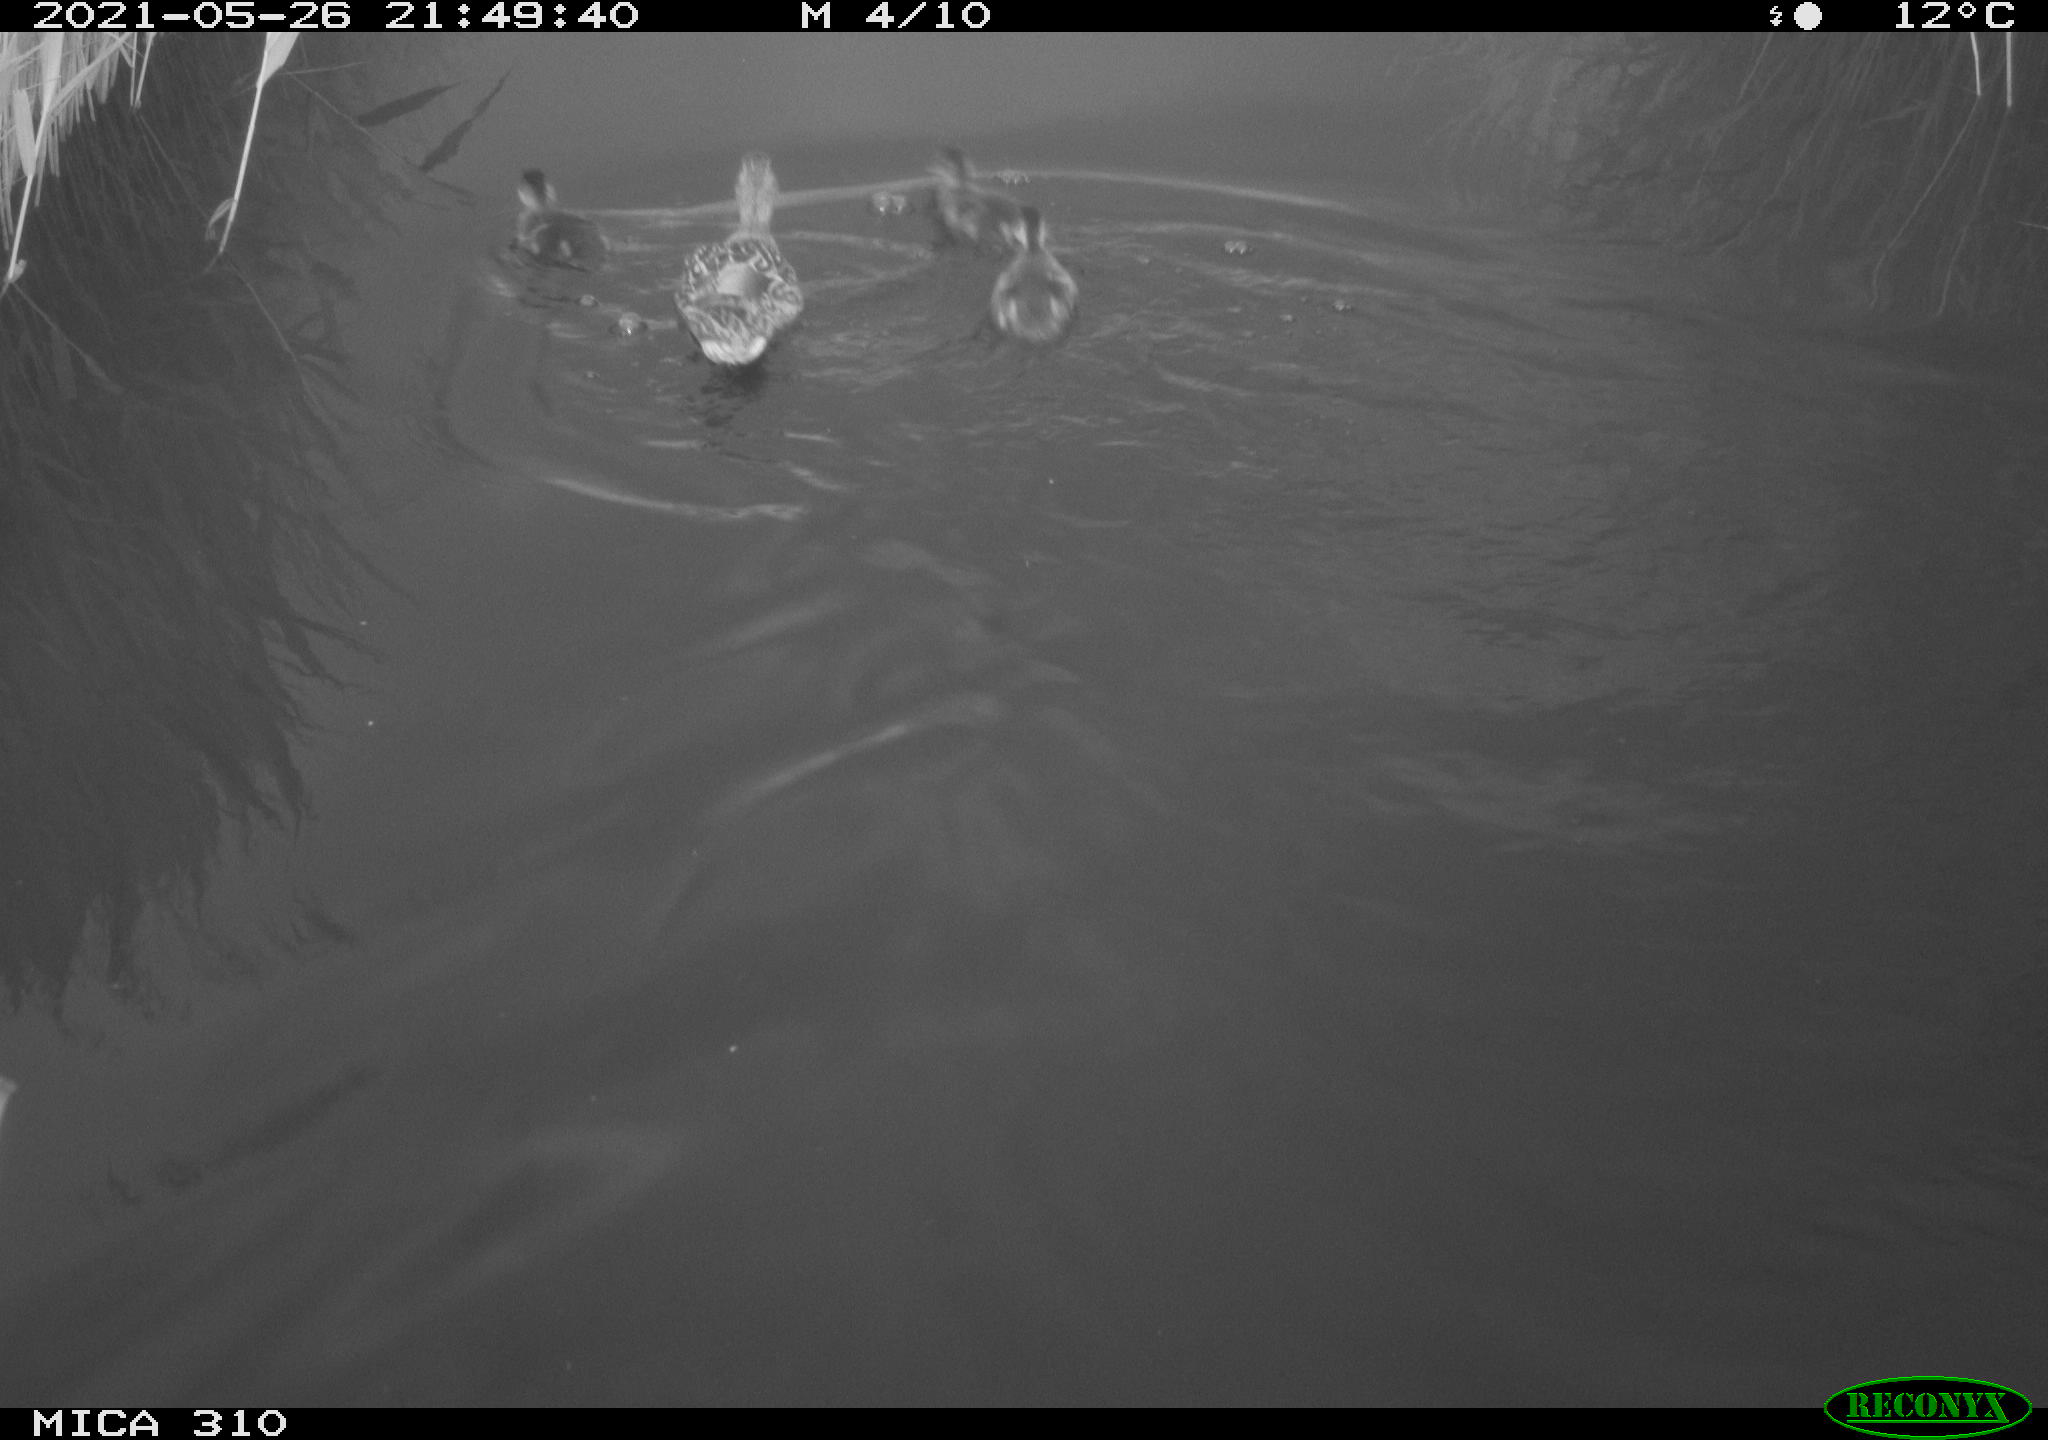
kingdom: Animalia
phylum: Chordata
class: Aves
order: Anseriformes
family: Anatidae
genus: Anas
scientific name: Anas platyrhynchos
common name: Mallard
